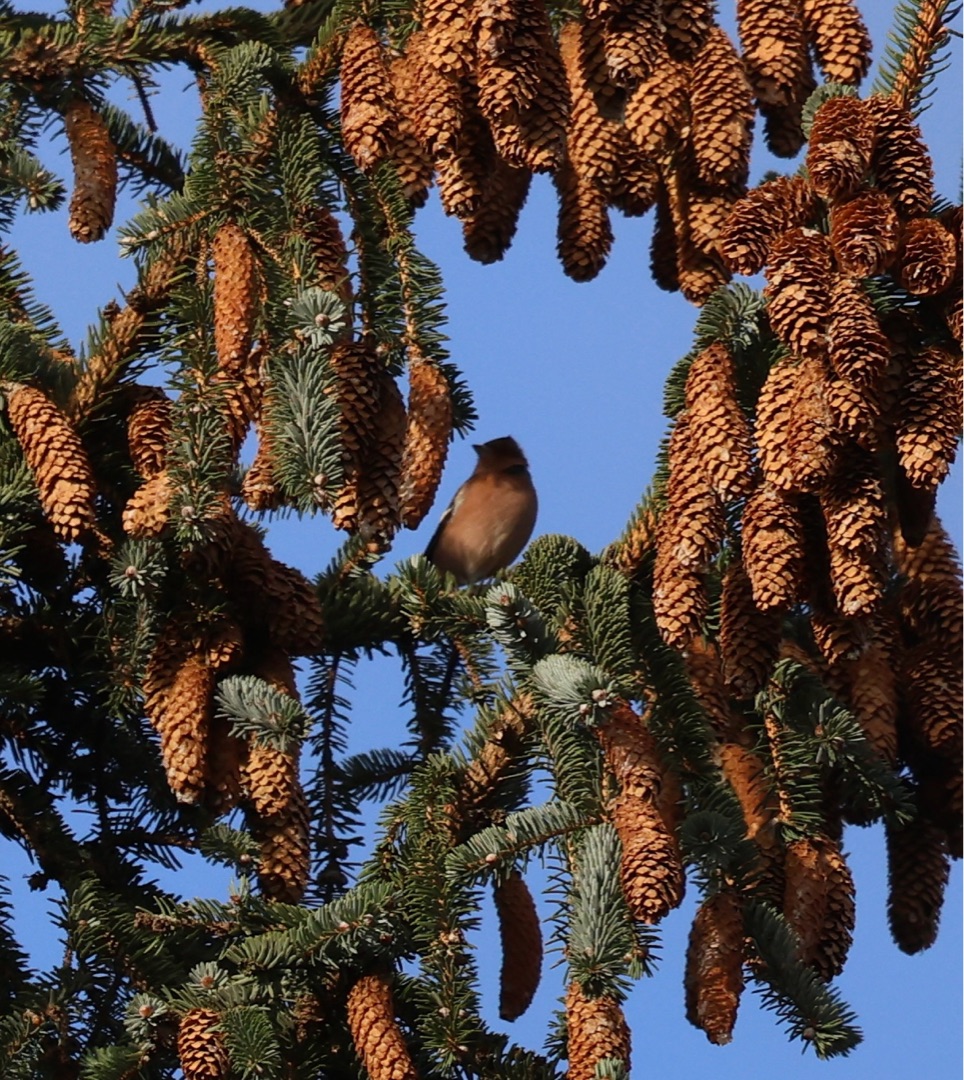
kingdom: Animalia
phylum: Chordata
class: Aves
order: Passeriformes
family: Fringillidae
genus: Fringilla
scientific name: Fringilla coelebs
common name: Bogfinke
